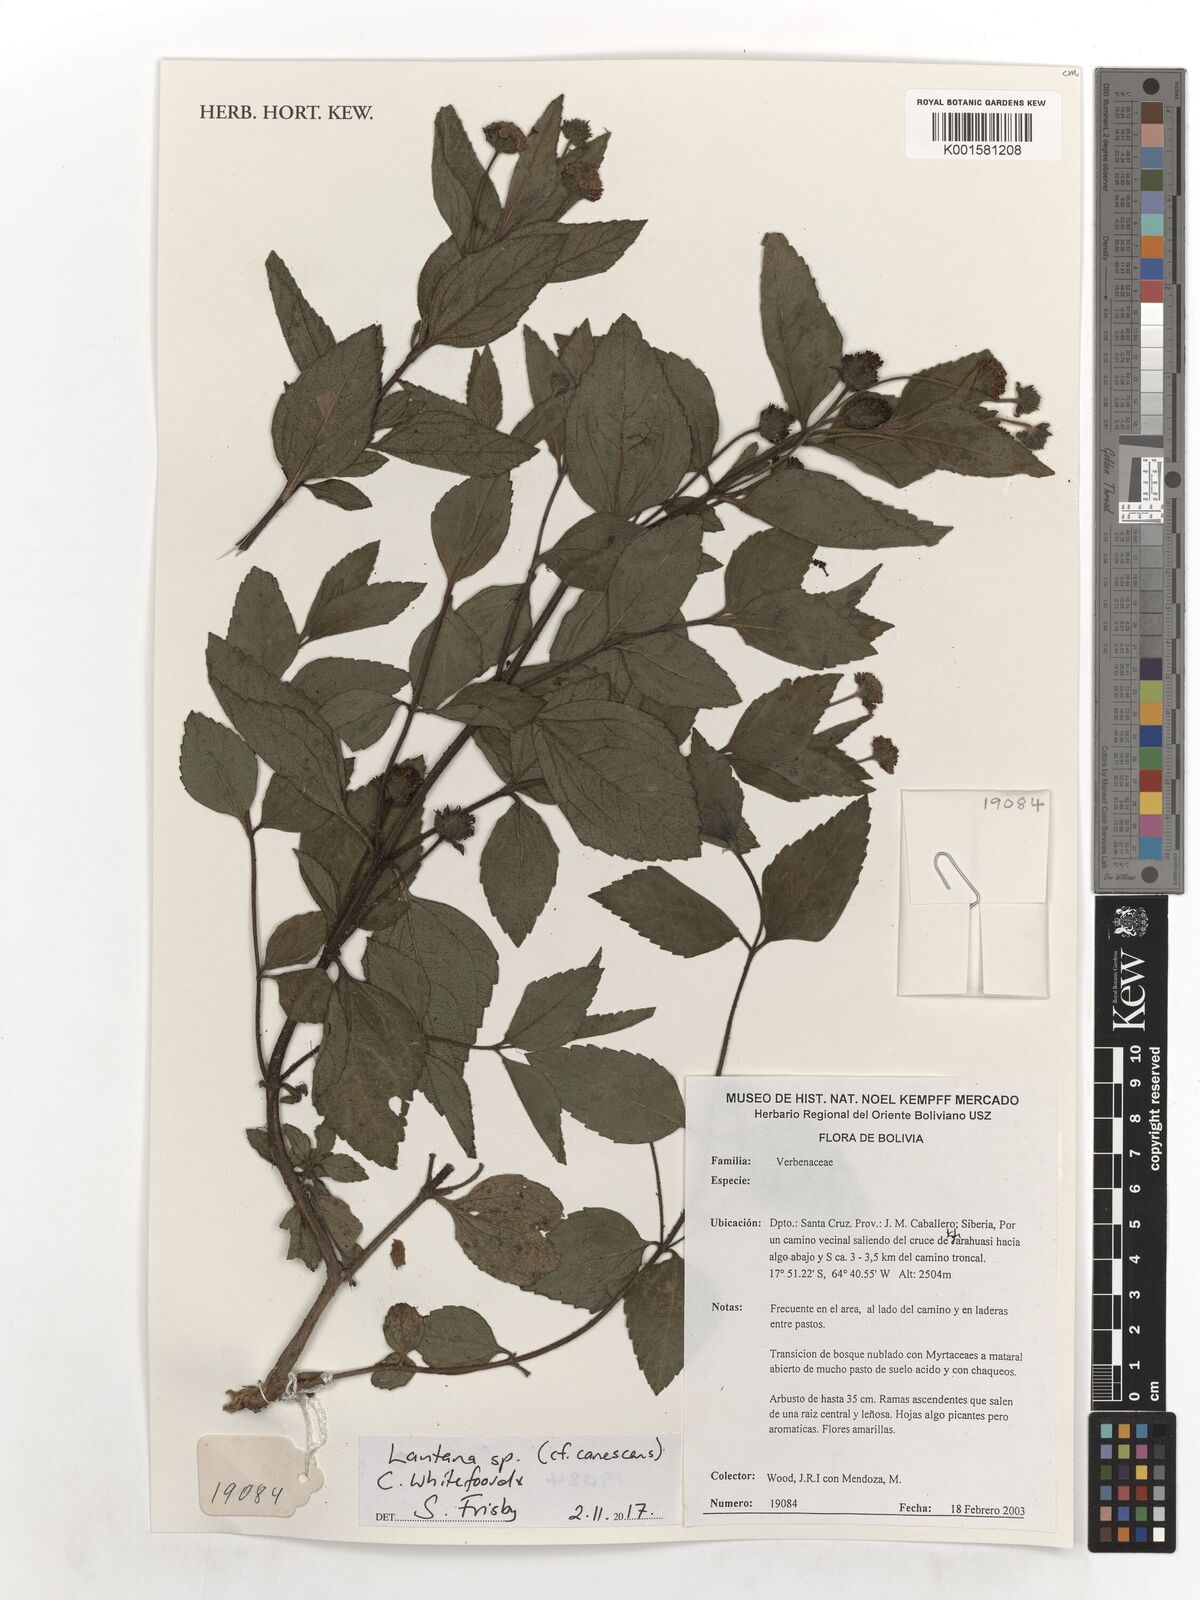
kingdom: Plantae
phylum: Tracheophyta
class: Magnoliopsida
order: Lamiales
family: Verbenaceae
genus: Lantana
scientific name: Lantana canescens
